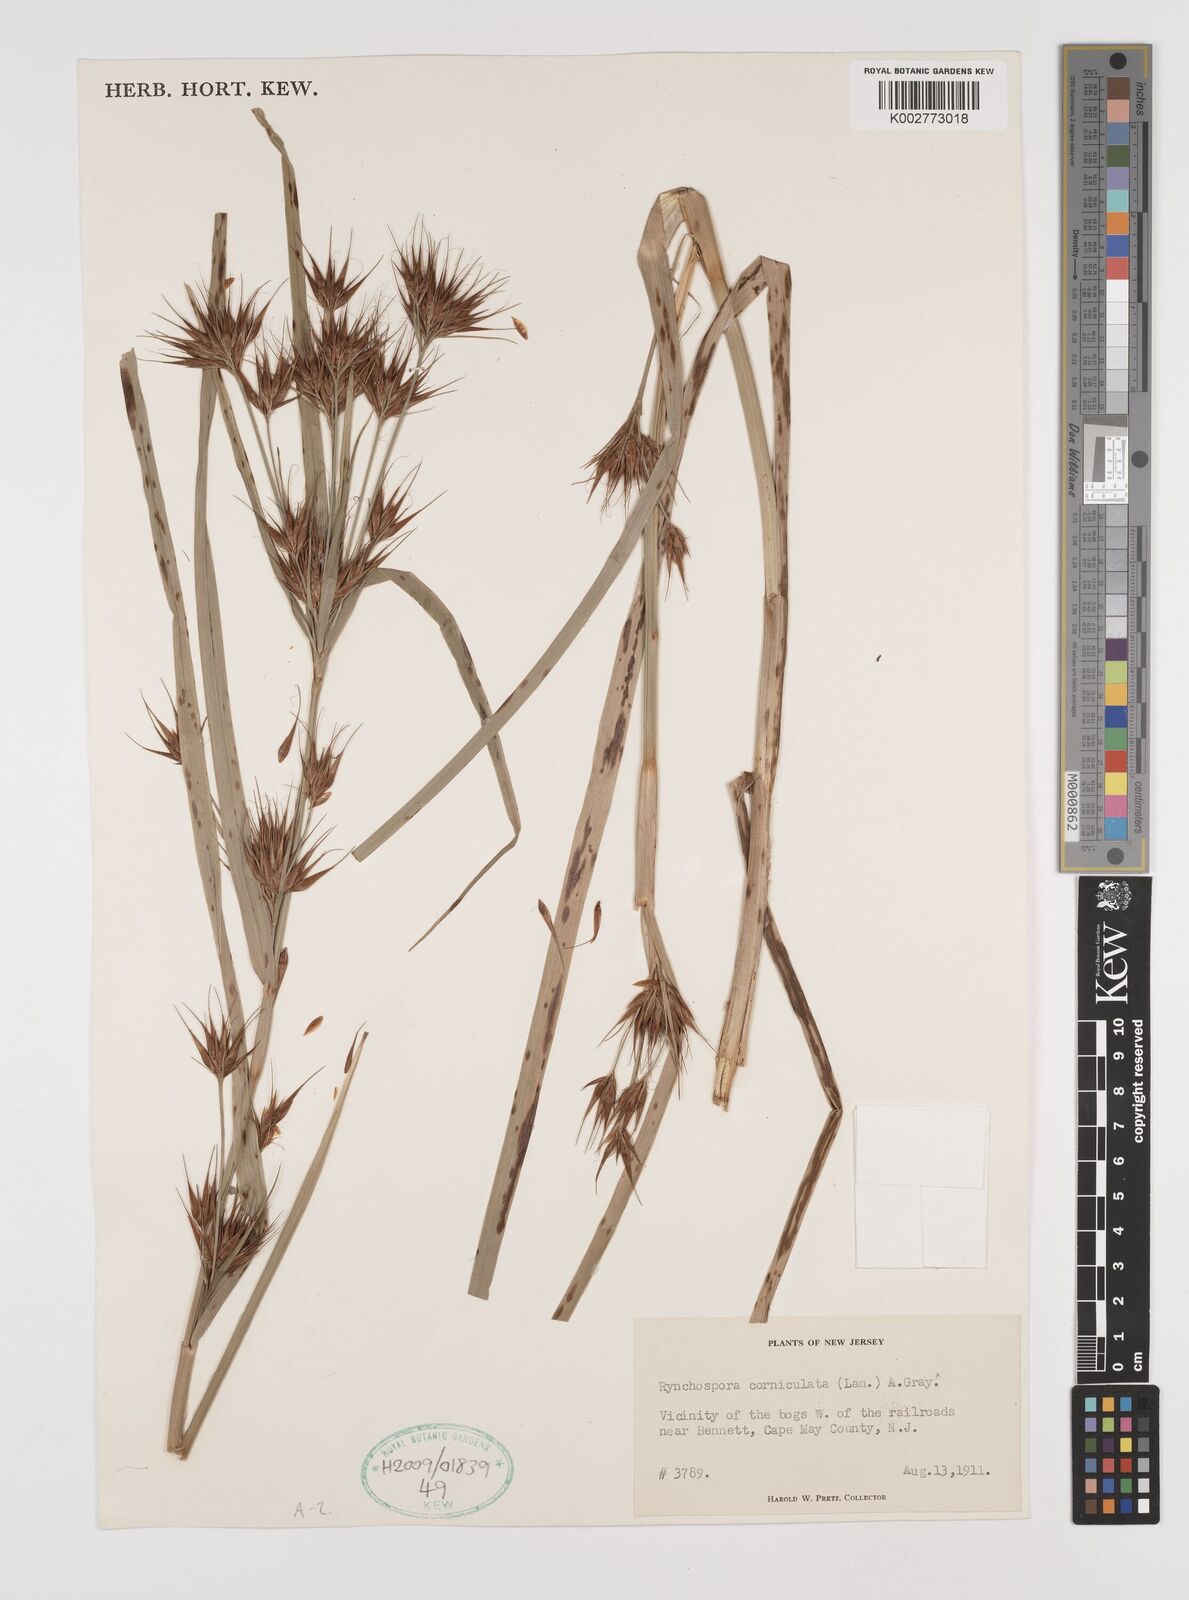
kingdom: Plantae
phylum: Tracheophyta
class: Liliopsida
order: Poales
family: Cyperaceae
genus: Rhynchospora
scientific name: Rhynchospora corniculata
